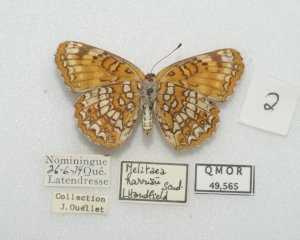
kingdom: Animalia
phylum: Arthropoda
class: Insecta
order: Lepidoptera
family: Nymphalidae
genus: Chlosyne
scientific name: Chlosyne harrisii
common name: Harris's Checkerspot
